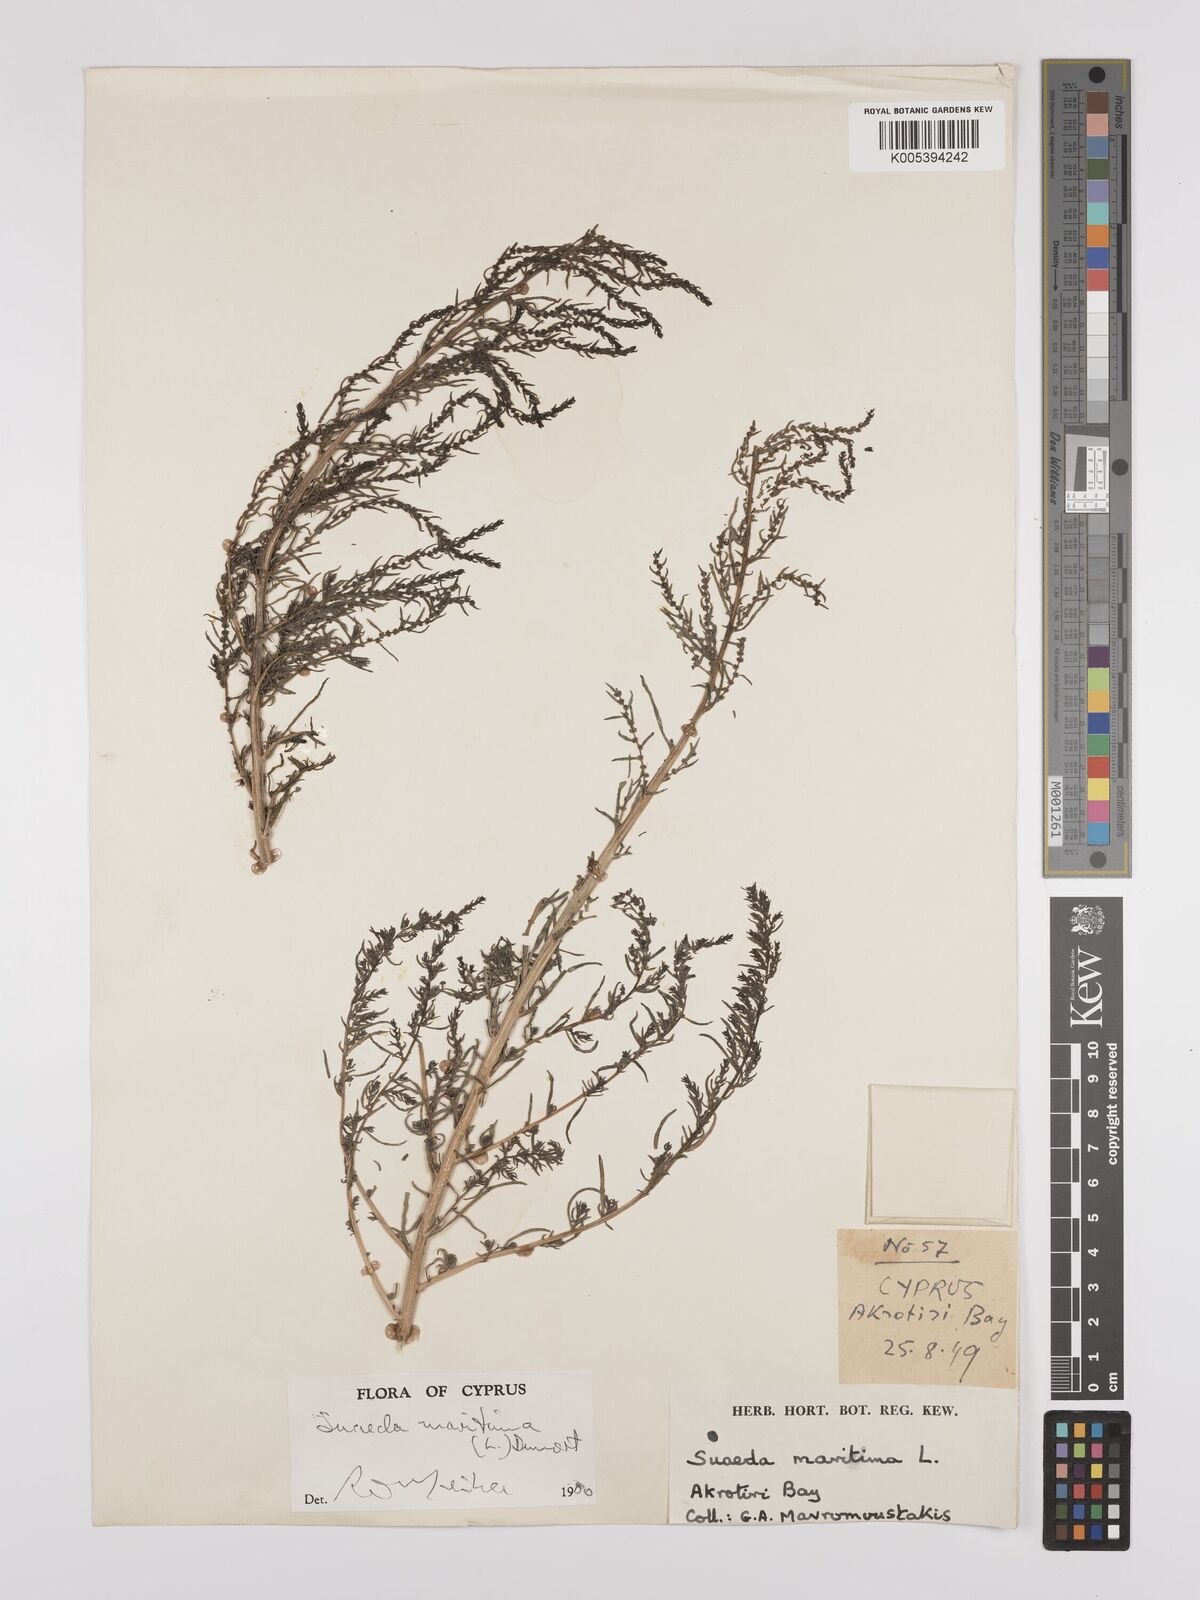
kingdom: Plantae
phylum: Tracheophyta
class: Magnoliopsida
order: Caryophyllales
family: Amaranthaceae
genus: Suaeda
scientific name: Suaeda
